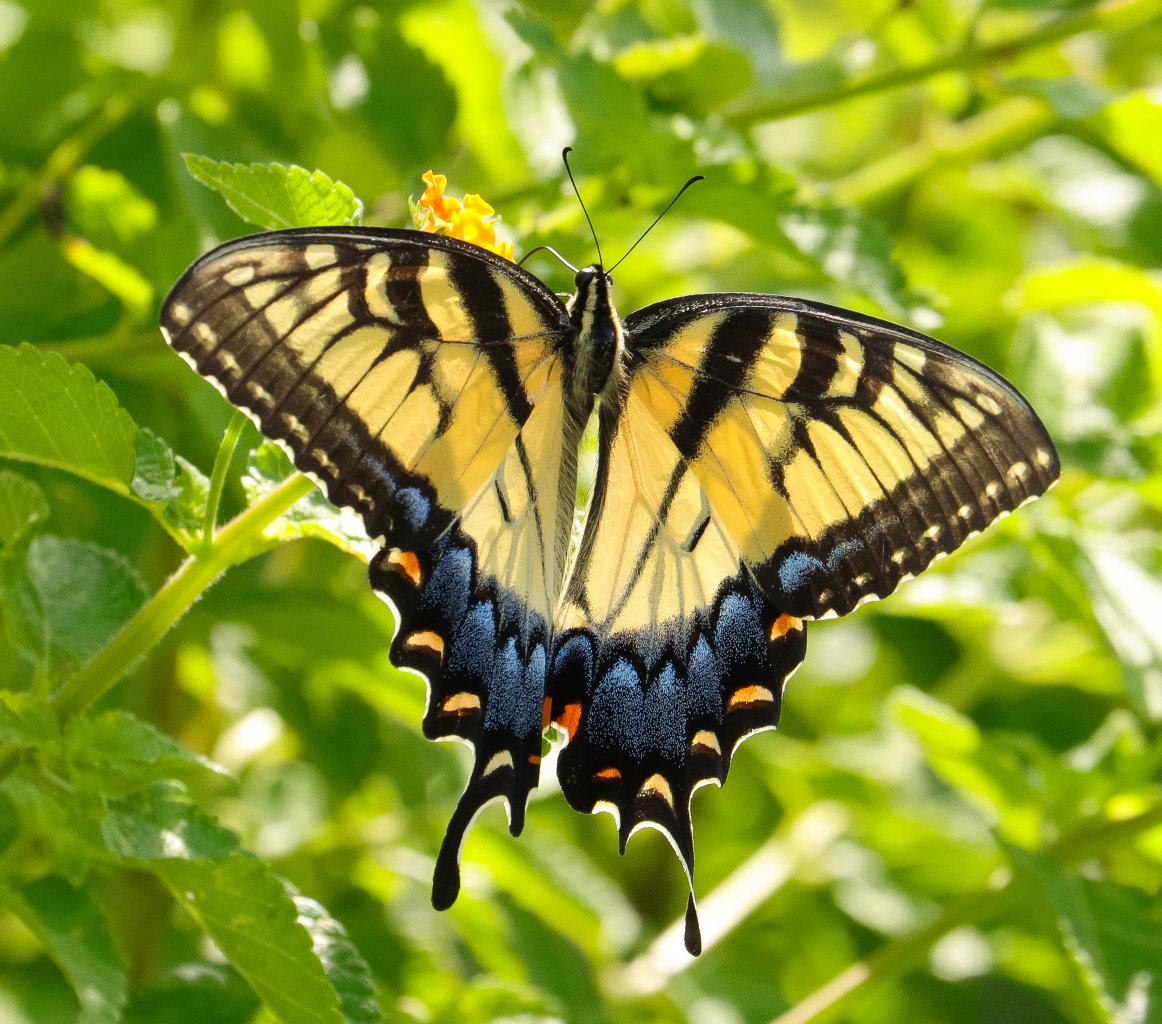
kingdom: Animalia
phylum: Arthropoda
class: Insecta
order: Lepidoptera
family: Papilionidae
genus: Pterourus
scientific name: Pterourus glaucus
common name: Eastern Tiger Swallowtail
